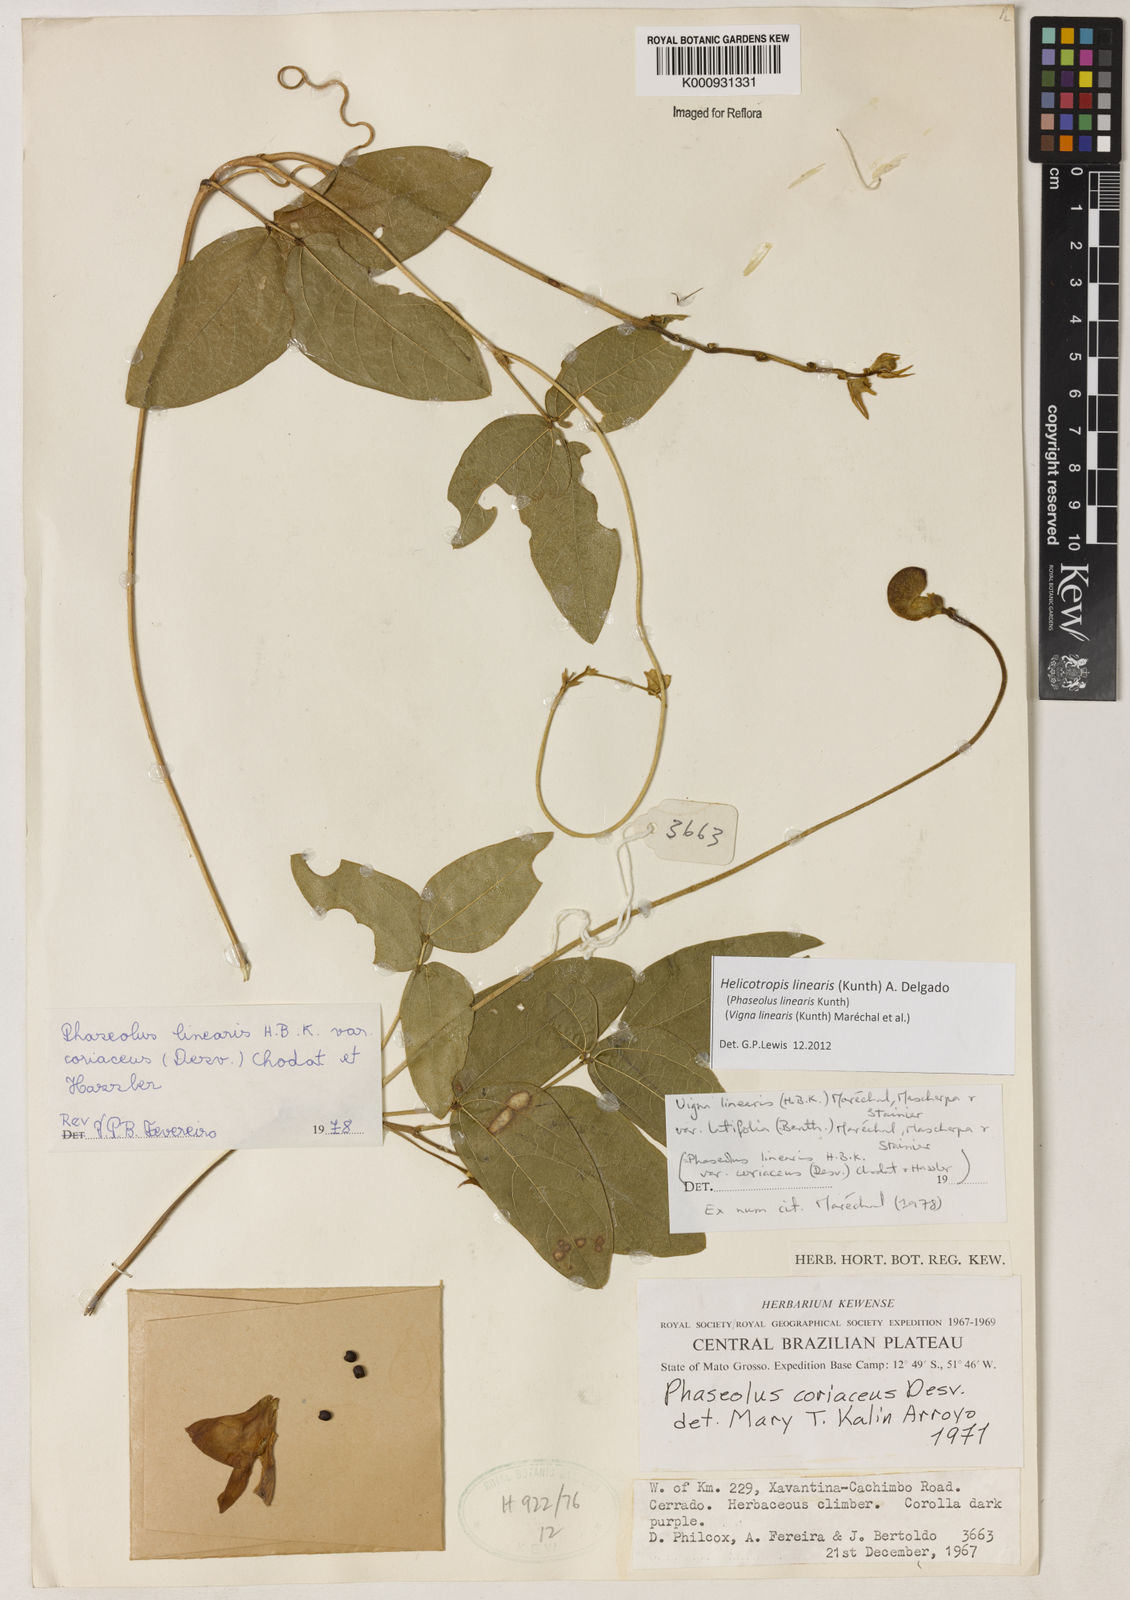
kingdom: Plantae
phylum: Tracheophyta
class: Magnoliopsida
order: Fabales
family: Fabaceae
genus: Helicotropis
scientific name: Helicotropis linearis
